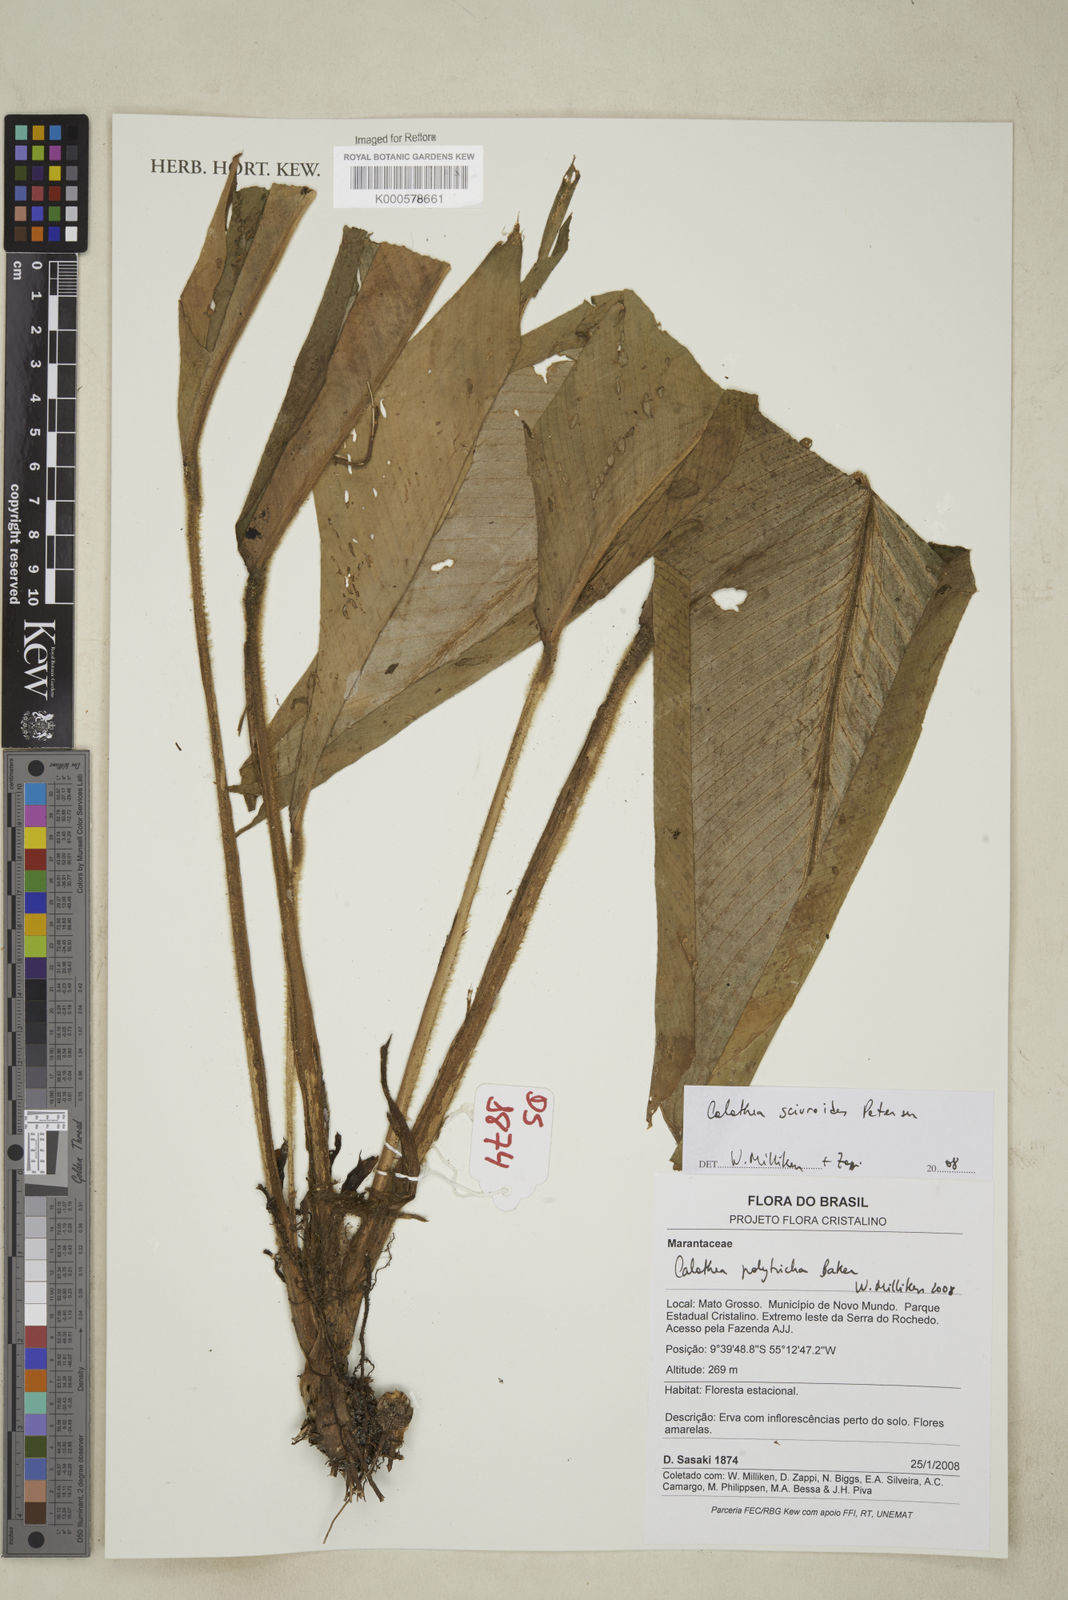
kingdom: Plantae
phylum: Tracheophyta
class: Liliopsida
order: Zingiberales
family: Marantaceae
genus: Goeppertia
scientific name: Goeppertia sciuroides
